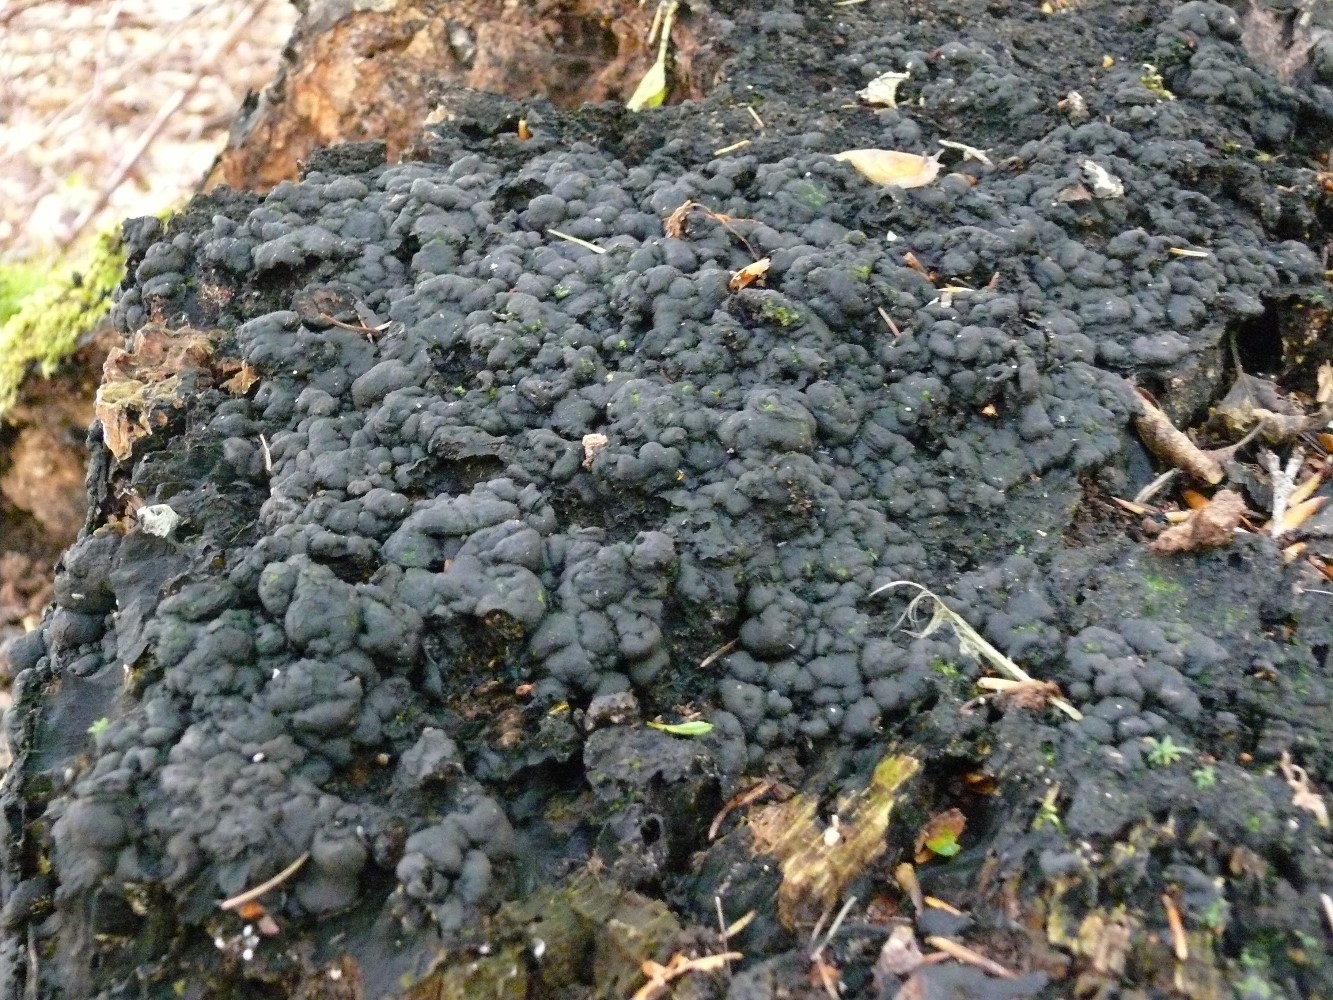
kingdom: Fungi
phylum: Ascomycota
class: Sordariomycetes
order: Xylariales
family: Xylariaceae
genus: Kretzschmaria
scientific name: Kretzschmaria deusta
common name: stor kulsvamp
